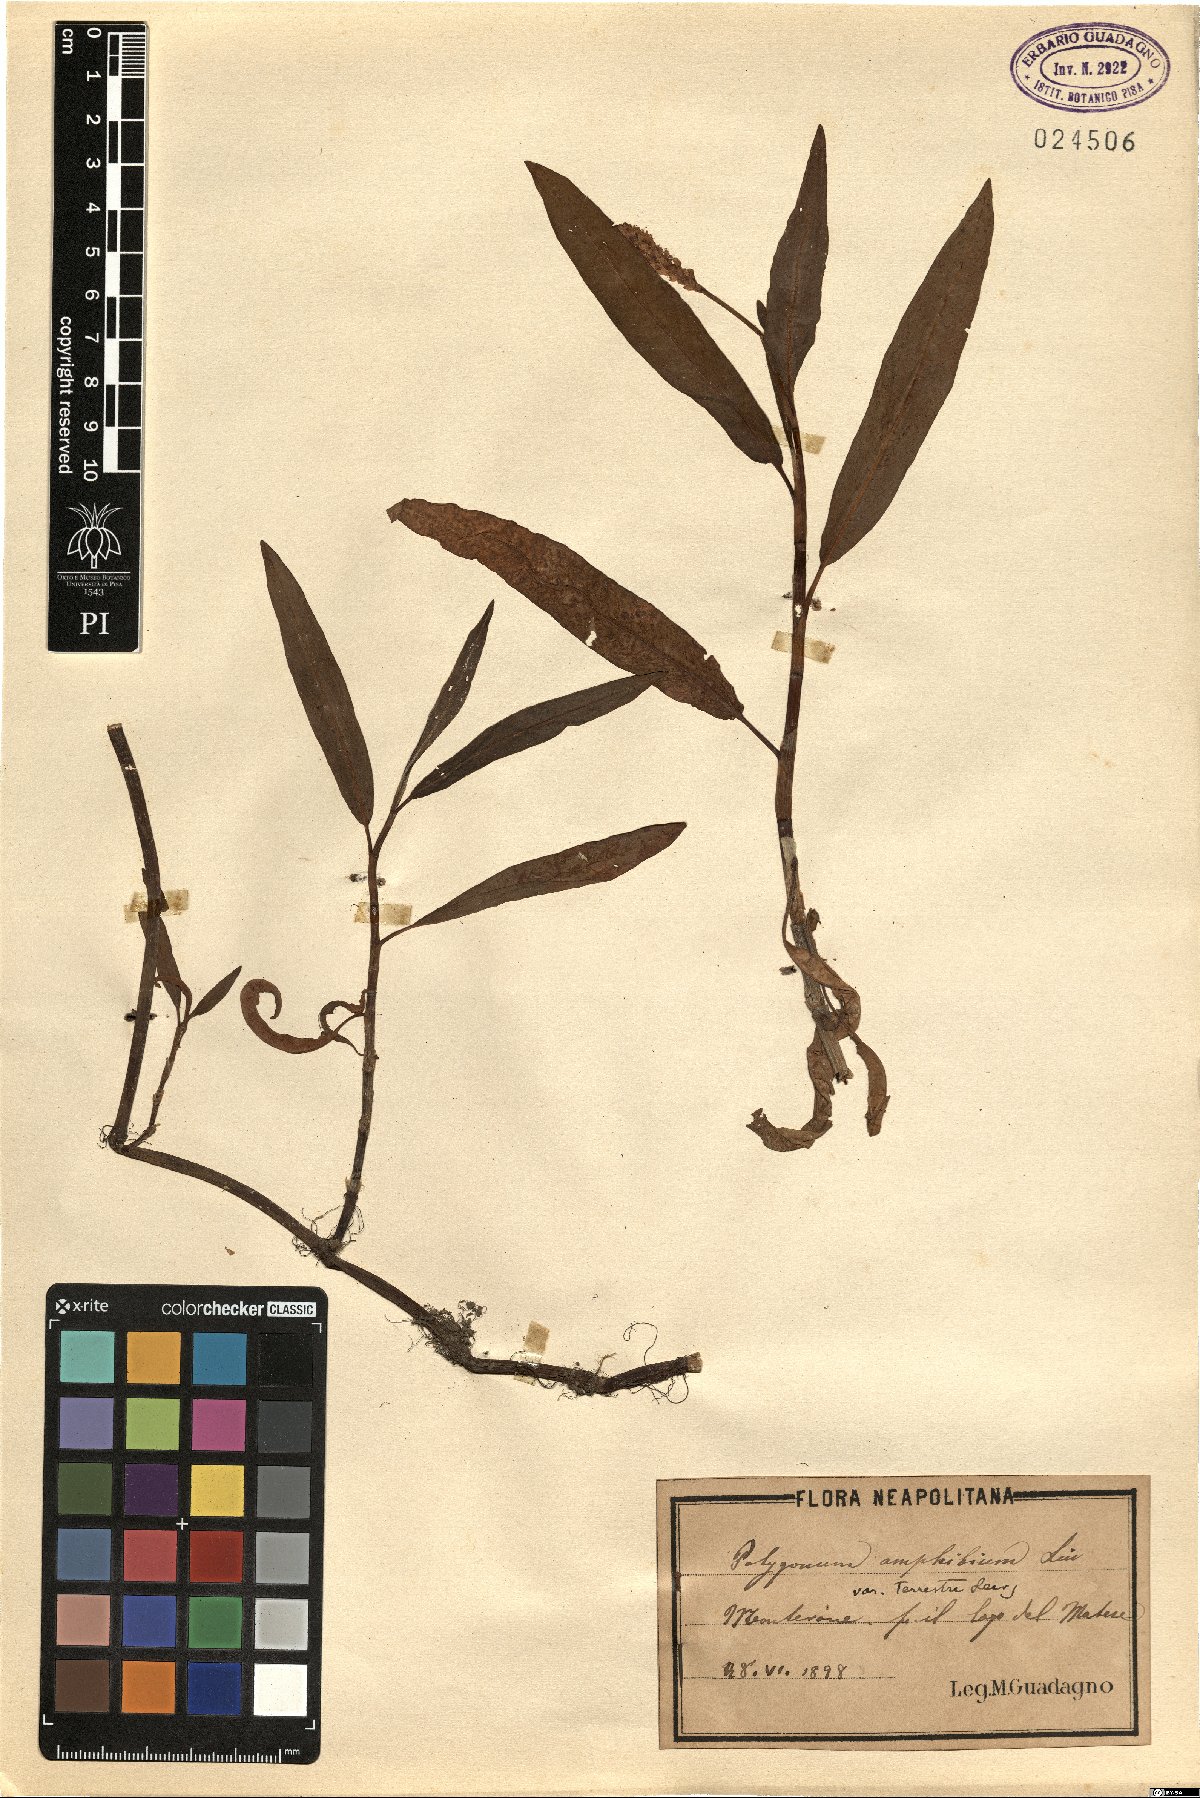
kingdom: Plantae
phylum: Tracheophyta
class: Magnoliopsida
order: Caryophyllales
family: Polygonaceae
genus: Persicaria
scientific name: Persicaria amphibia
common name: Amphibious bistort
